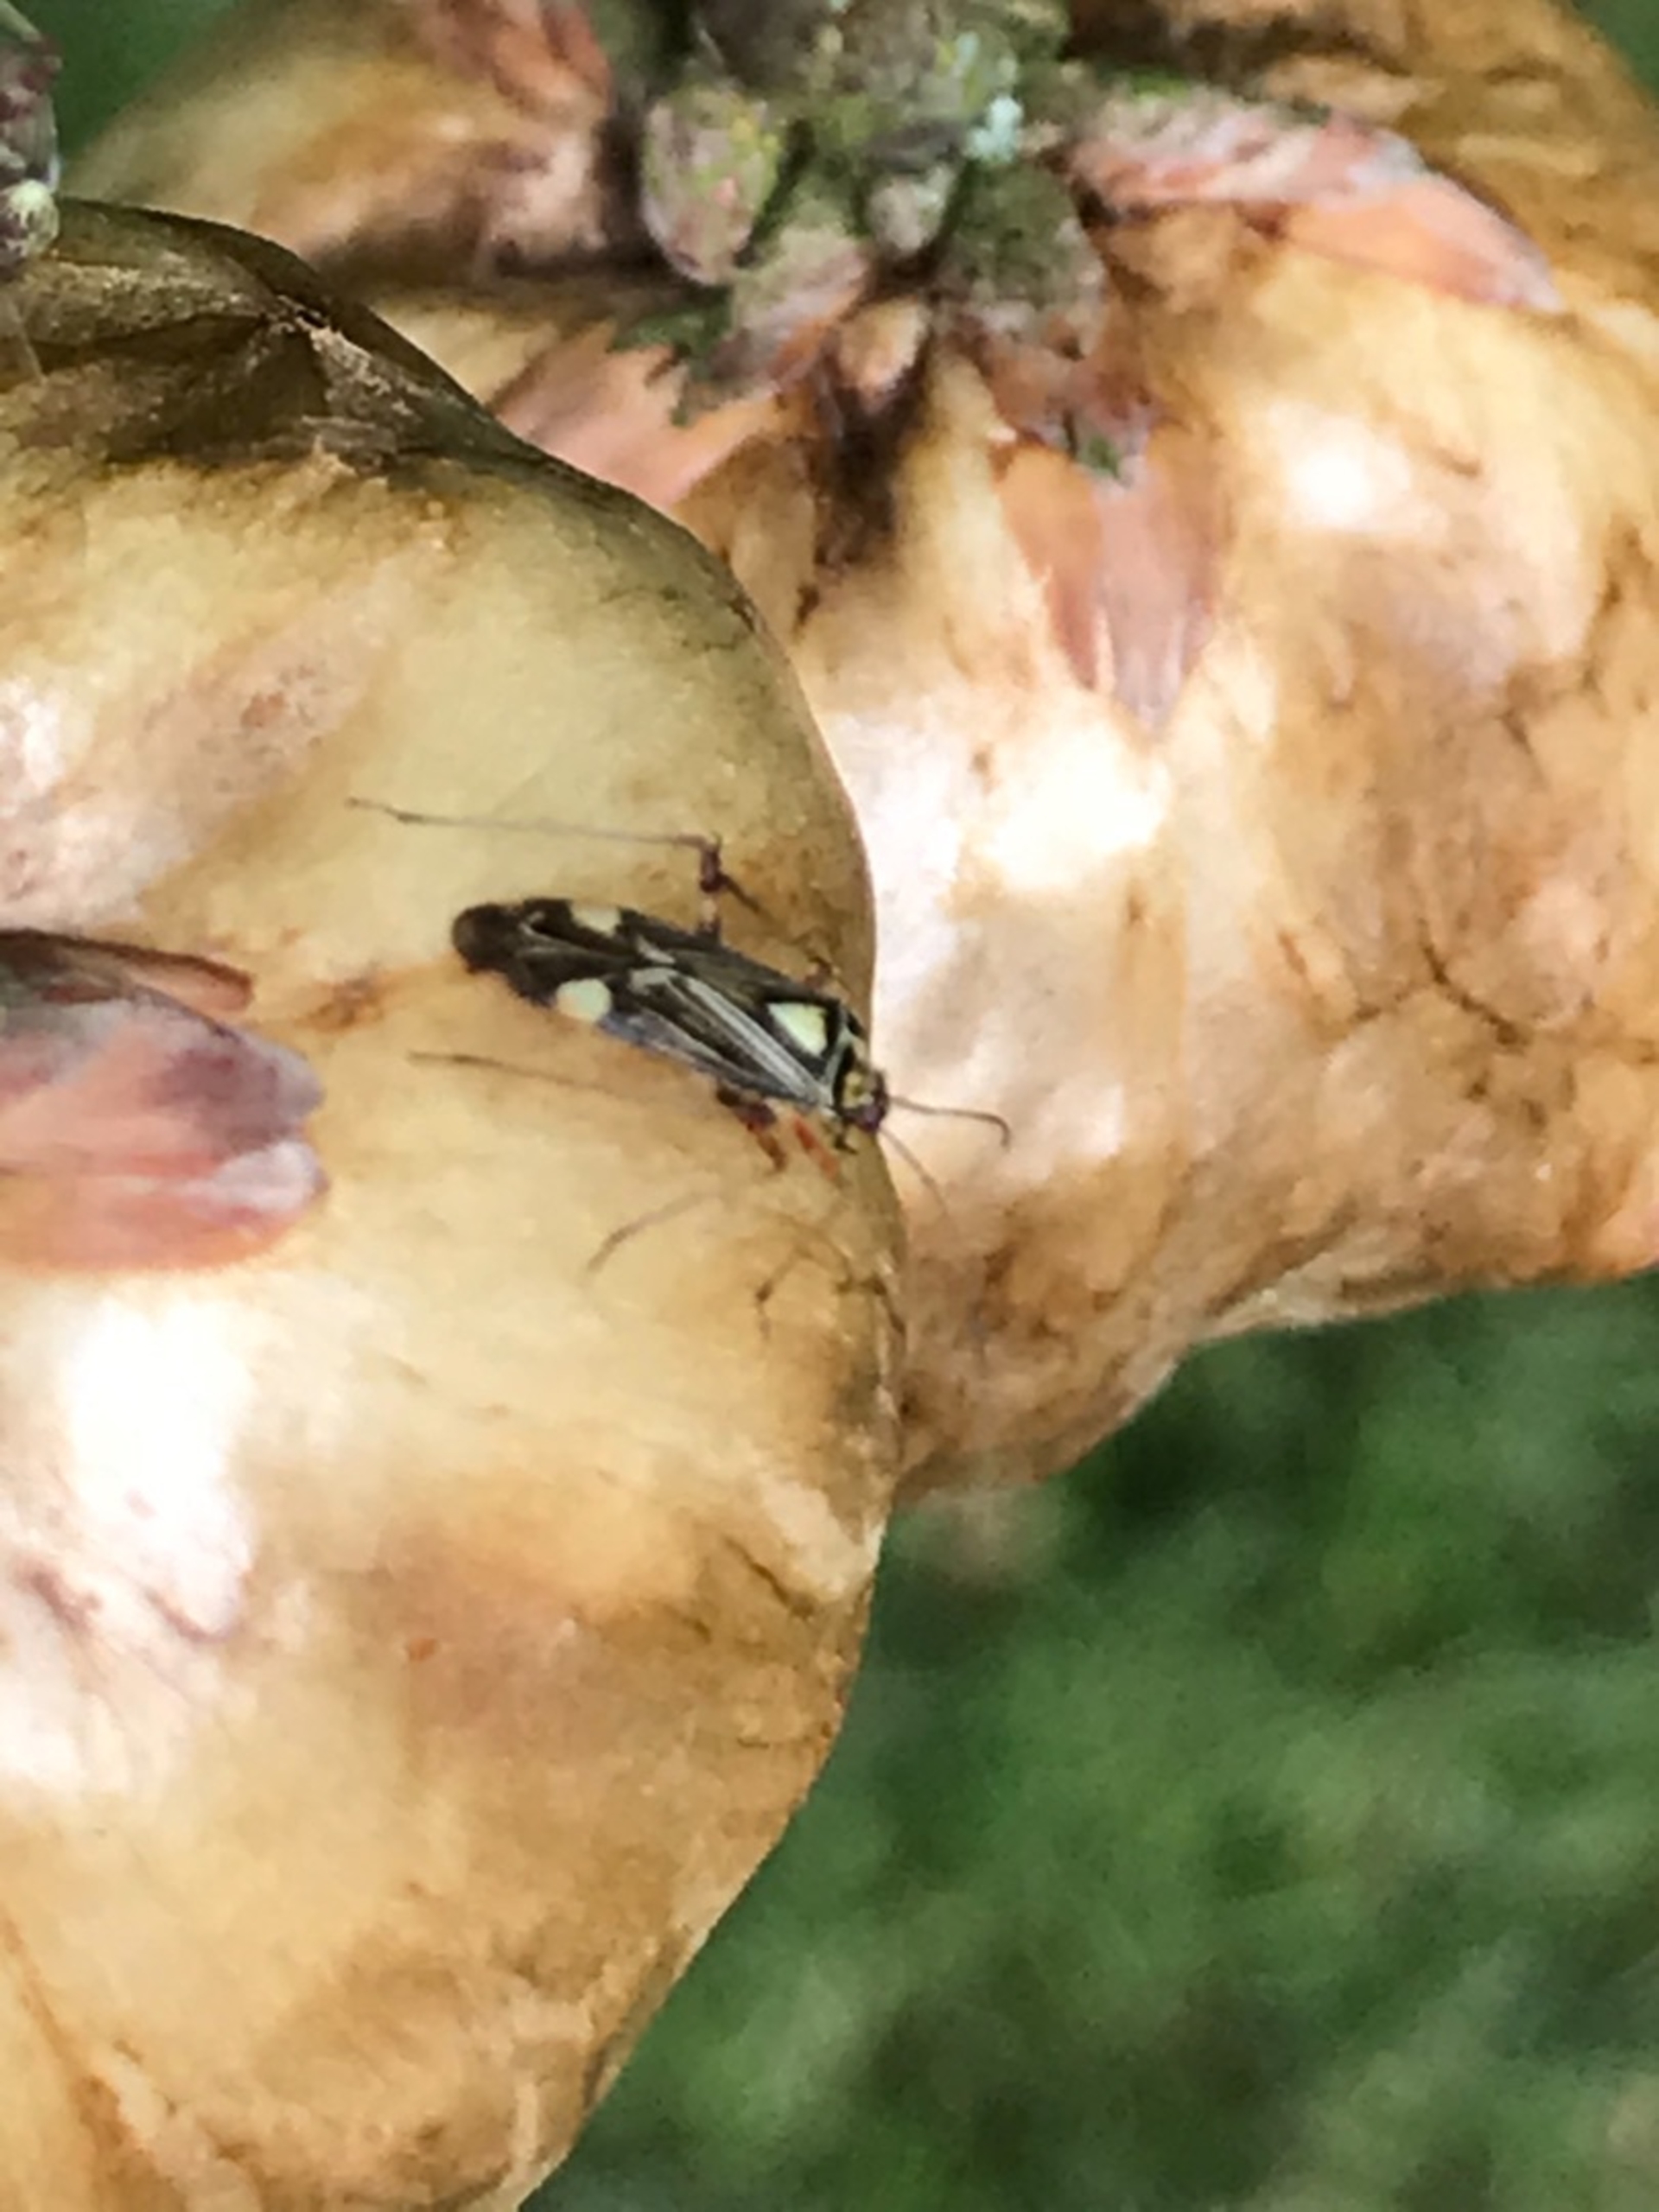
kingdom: Animalia
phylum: Arthropoda
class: Insecta
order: Hemiptera
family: Miridae
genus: Rhabdomiris
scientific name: Rhabdomiris striatellus
